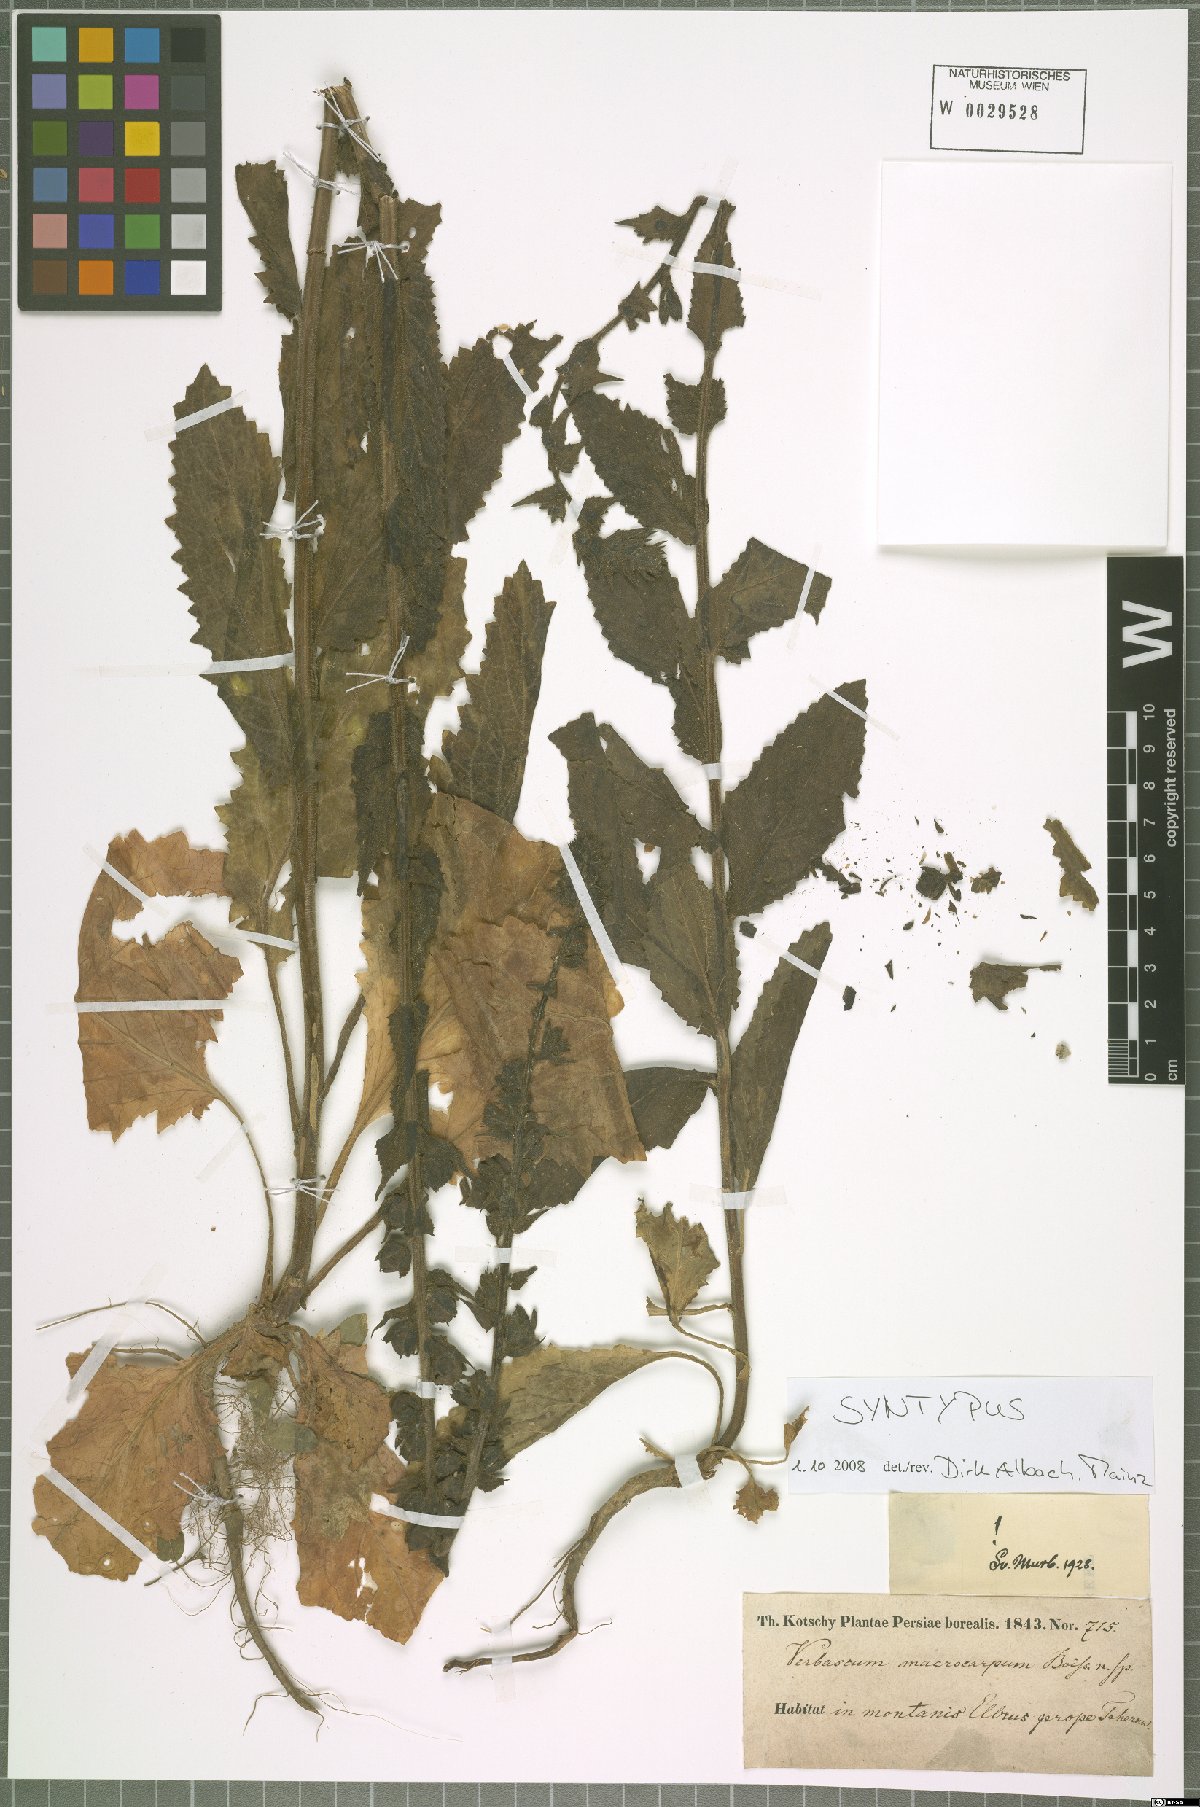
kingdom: Plantae
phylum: Tracheophyta
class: Magnoliopsida
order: Lamiales
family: Scrophulariaceae
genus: Verbascum
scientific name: Verbascum macrosepalum
